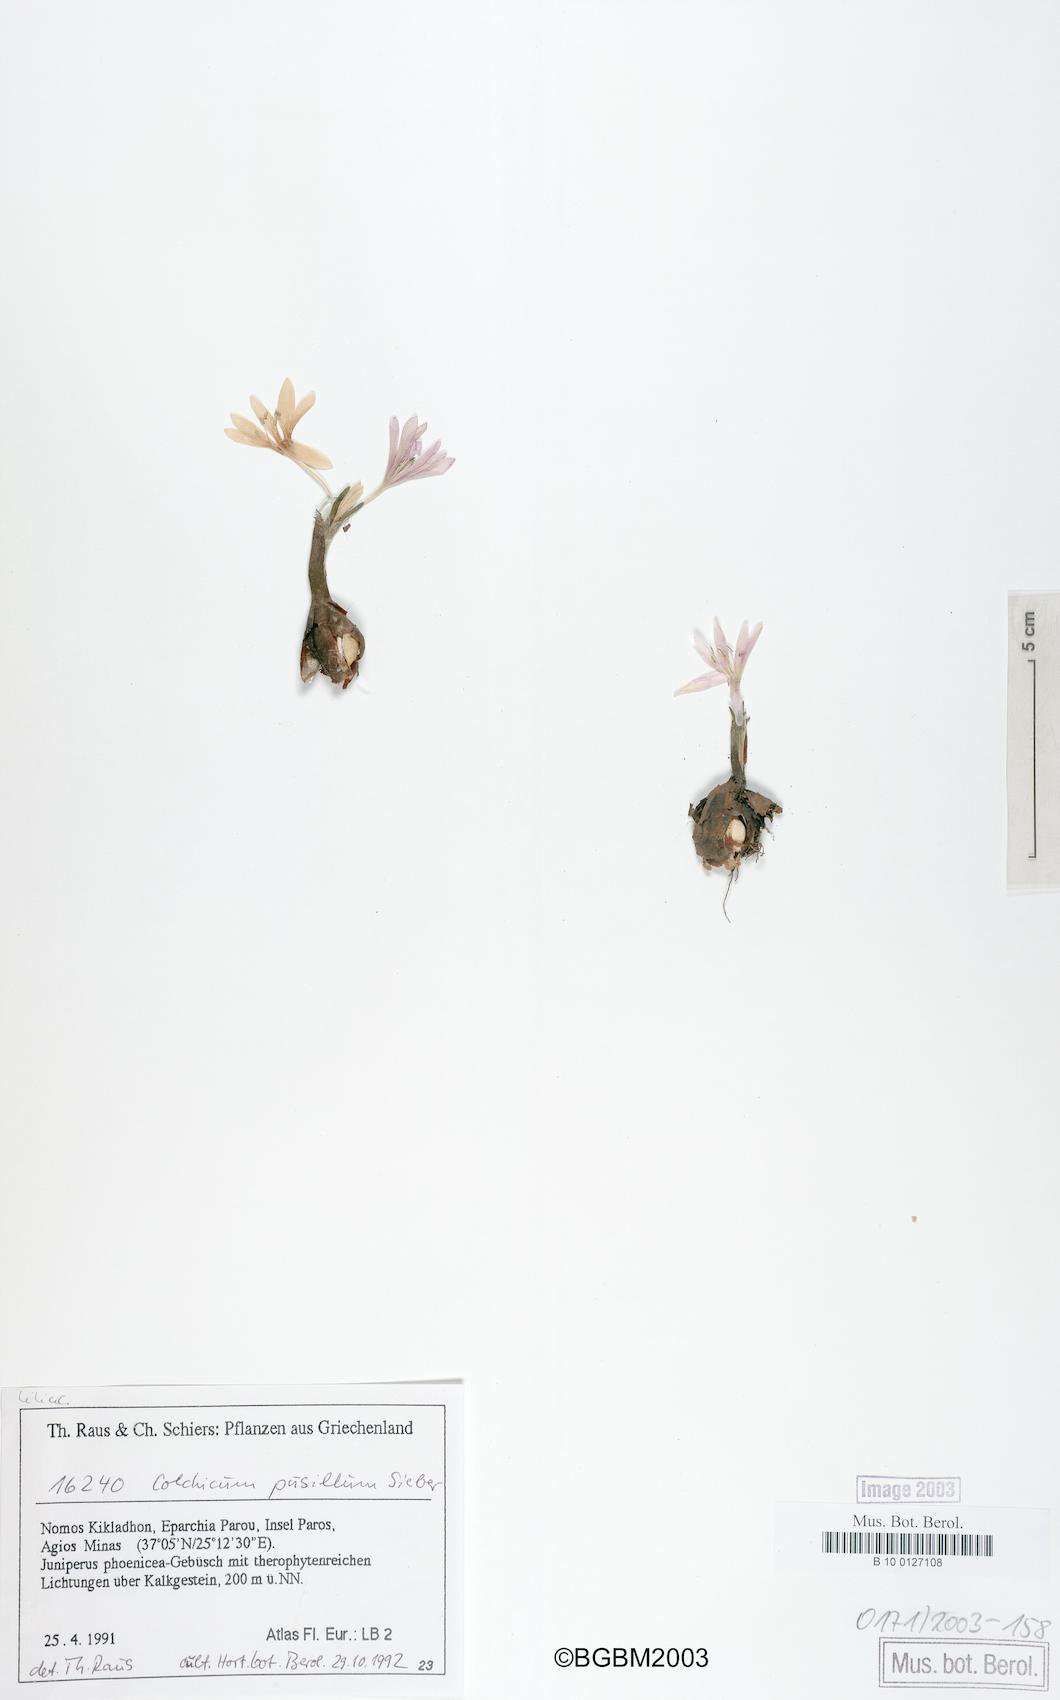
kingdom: Plantae
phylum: Tracheophyta
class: Liliopsida
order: Liliales
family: Colchicaceae
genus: Colchicum
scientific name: Colchicum pusillum
